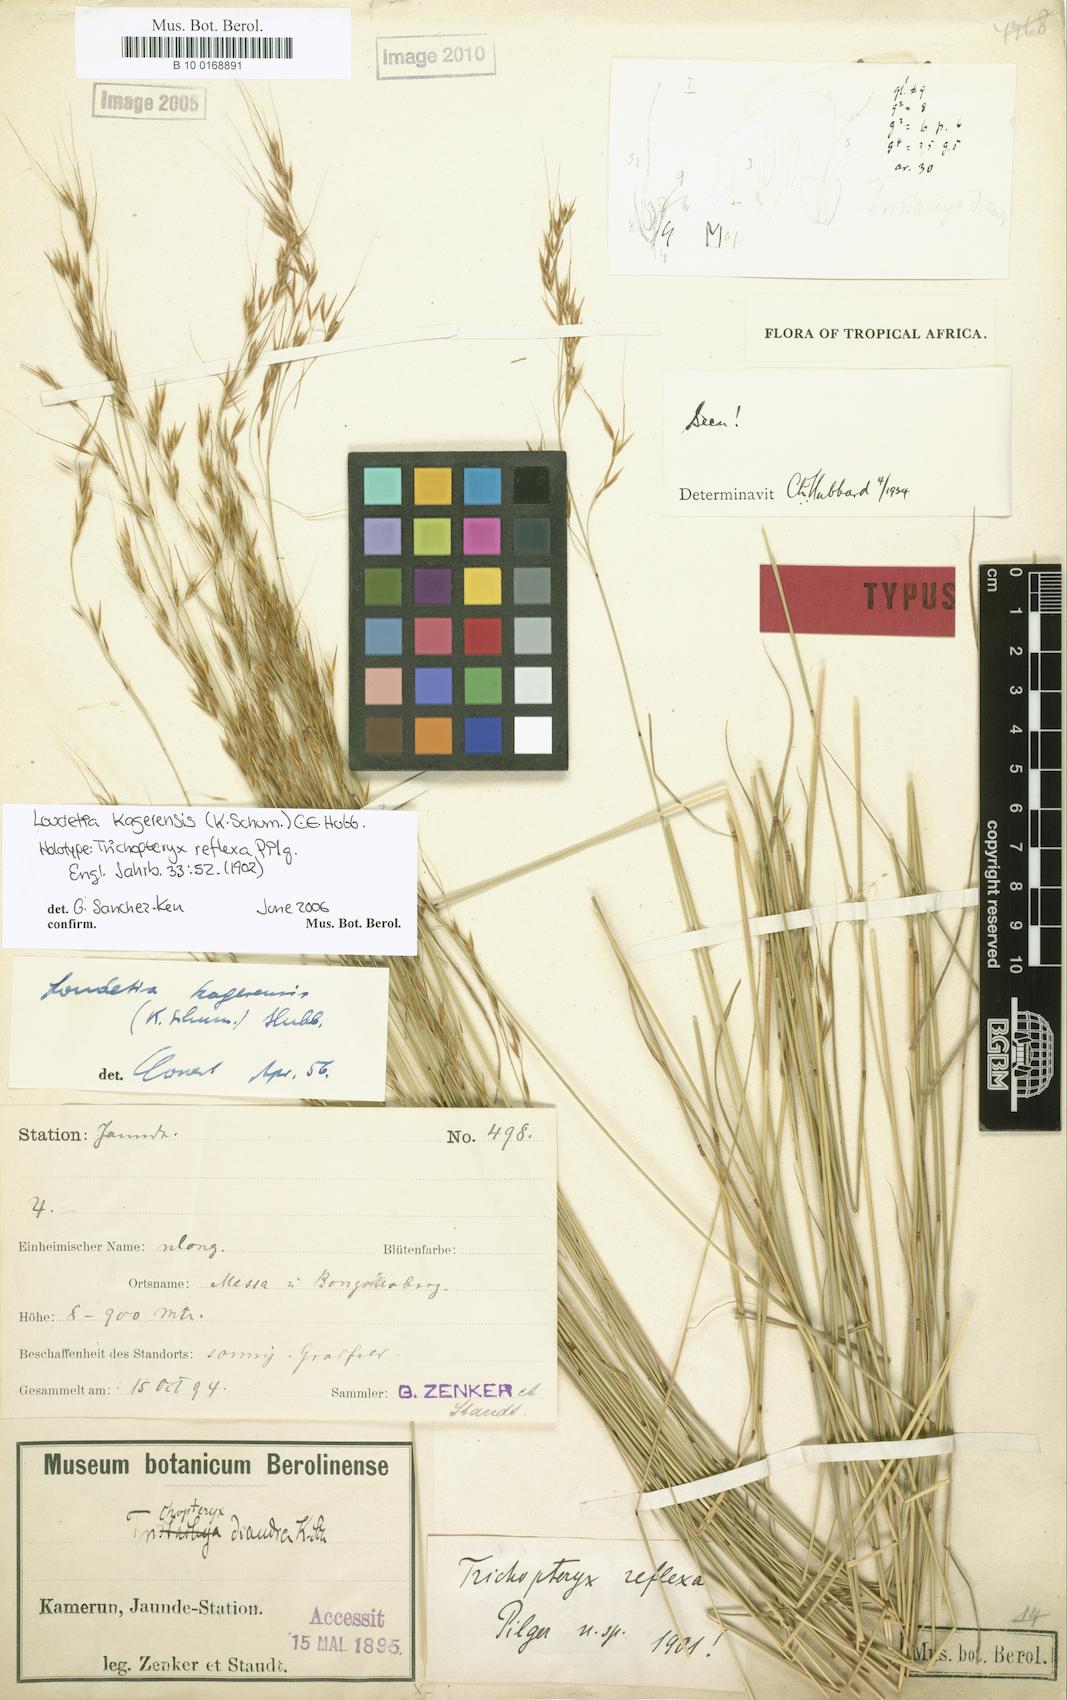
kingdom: Plantae
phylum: Tracheophyta
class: Liliopsida
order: Poales
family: Poaceae
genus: Loudetia
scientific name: Loudetia kagerensis
